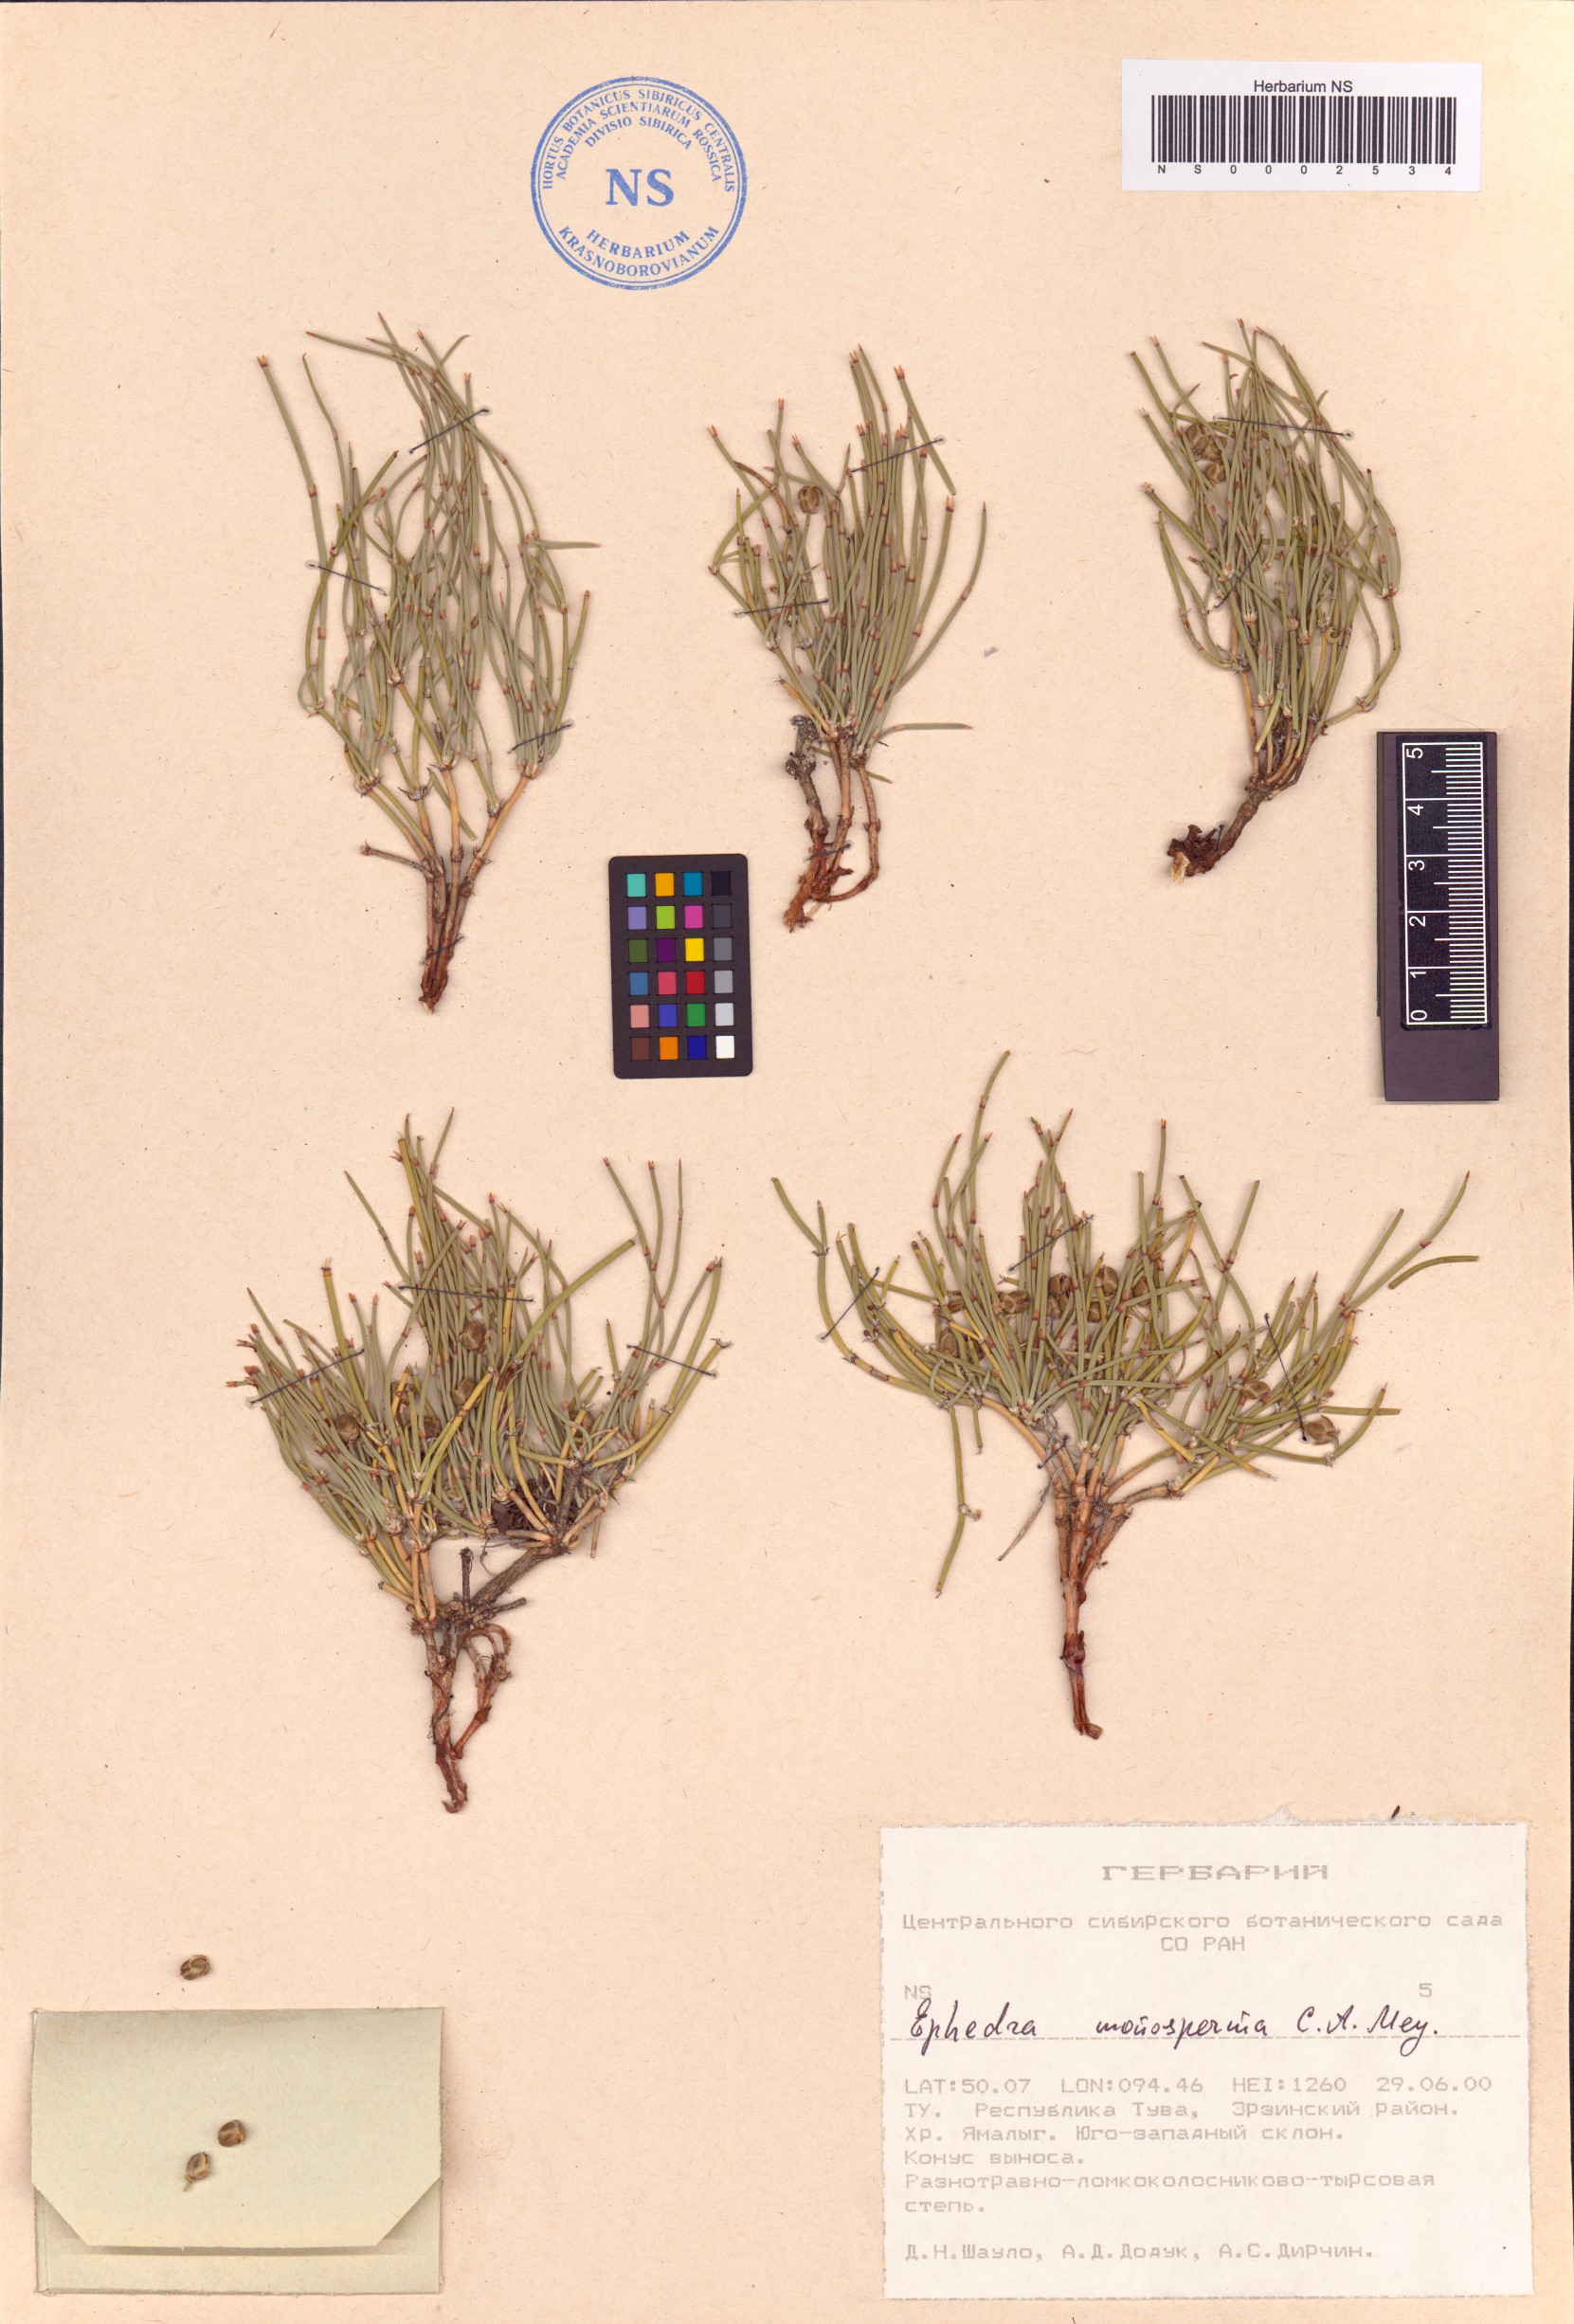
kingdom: Plantae
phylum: Tracheophyta
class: Gnetopsida
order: Ephedrales
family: Ephedraceae
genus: Ephedra
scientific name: Ephedra monosperma
